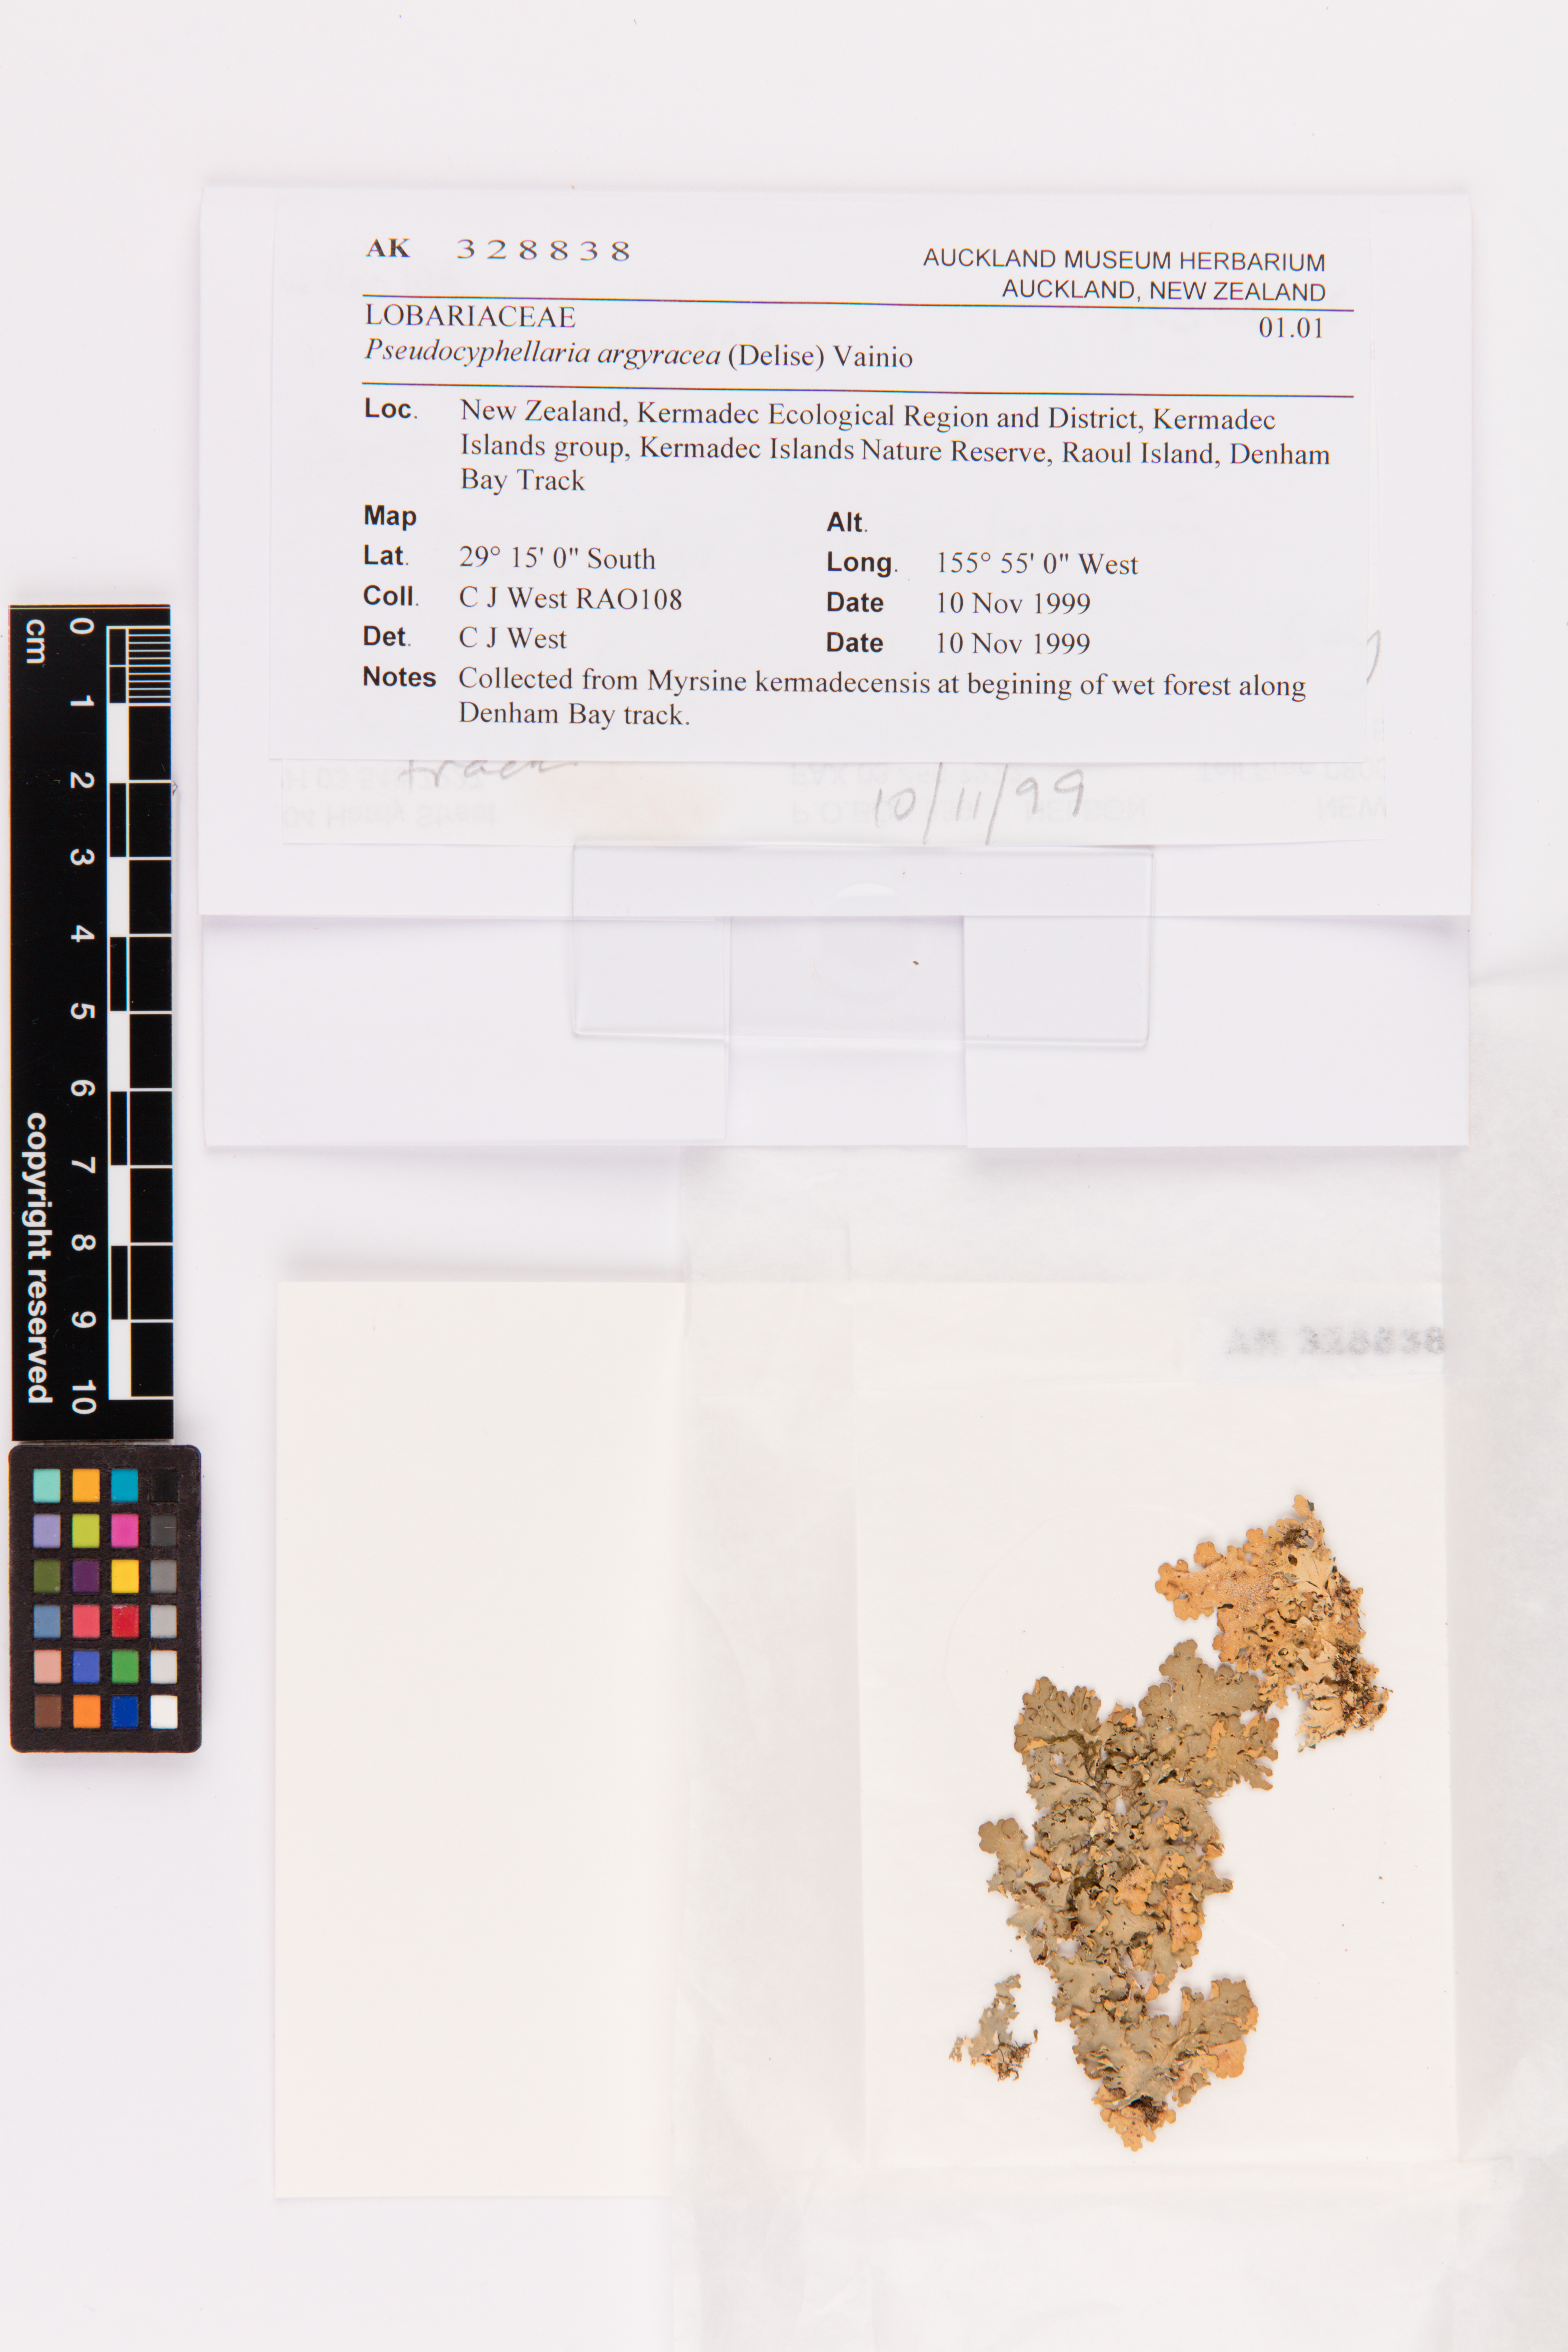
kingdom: Fungi
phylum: Ascomycota
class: Lecanoromycetes
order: Peltigerales
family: Lobariaceae
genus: Pseudocyphellaria
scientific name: Pseudocyphellaria argyracea
